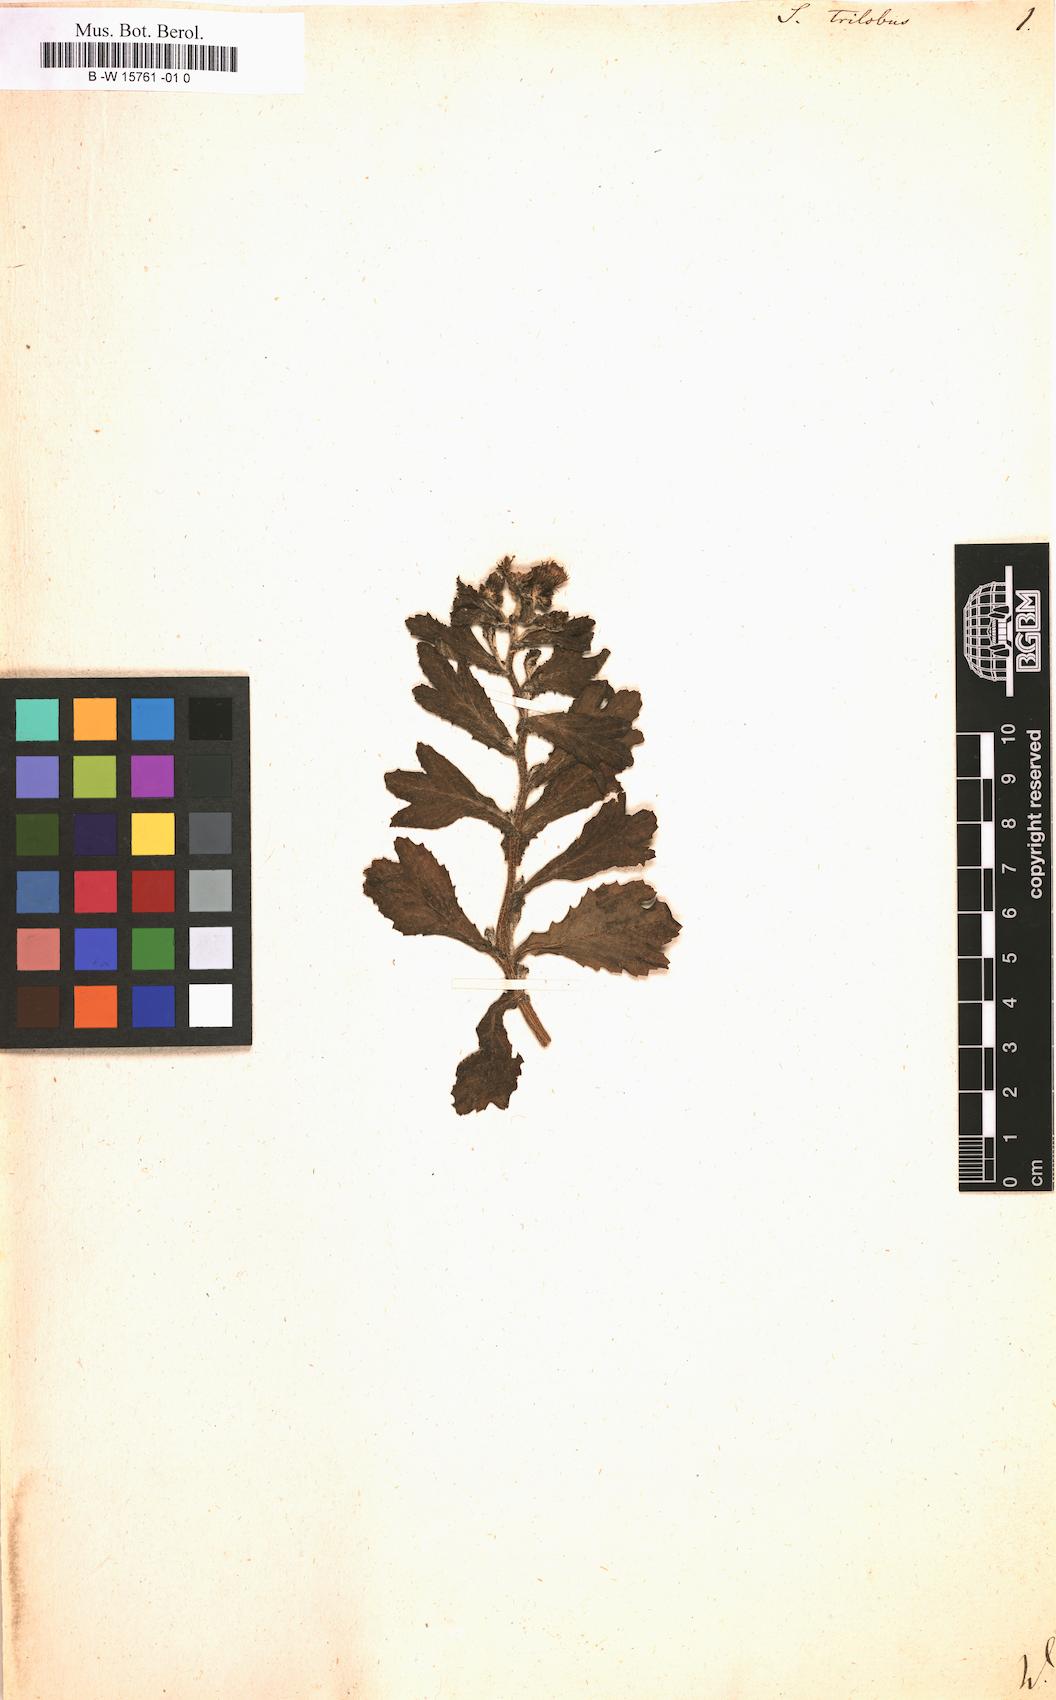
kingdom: Plantae
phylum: Tracheophyta
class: Magnoliopsida
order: Asterales
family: Asteraceae
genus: Senecio
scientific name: Senecio trilobus
